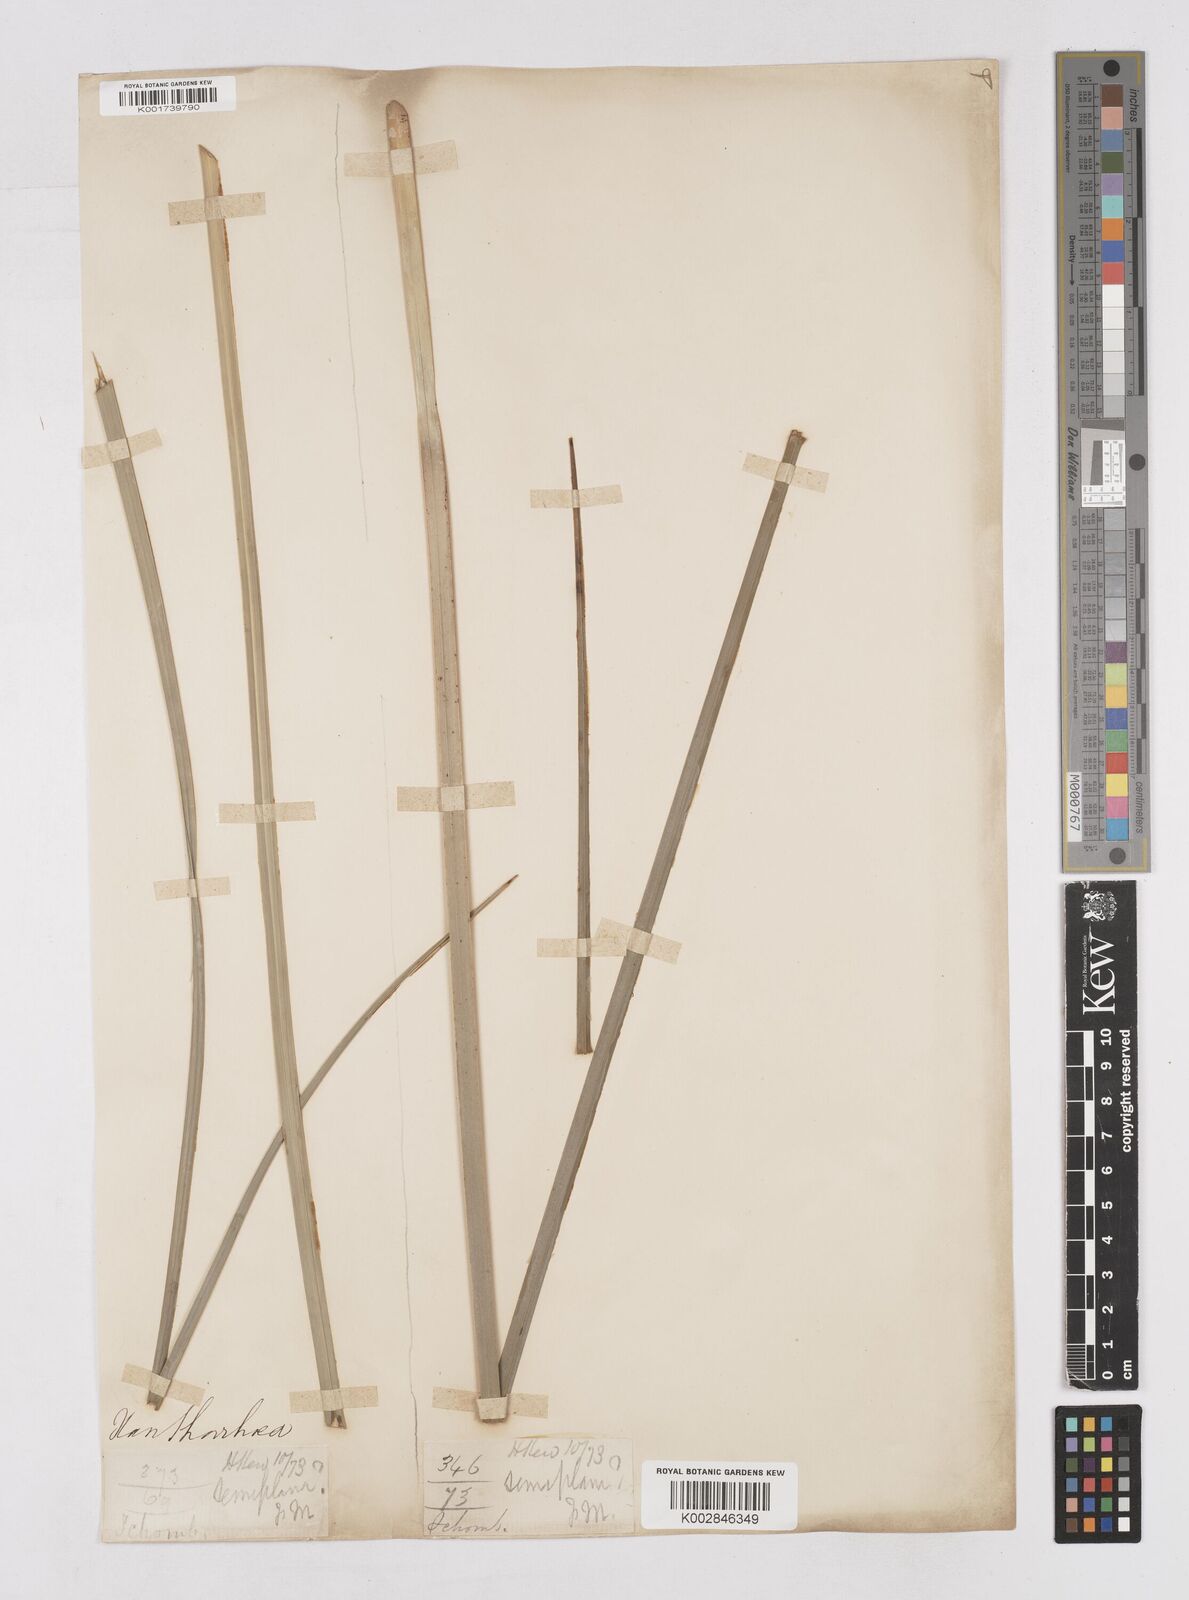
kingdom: Plantae
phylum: Tracheophyta
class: Liliopsida
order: Asparagales
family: Asphodelaceae
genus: Xanthorrhoea
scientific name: Xanthorrhoea
